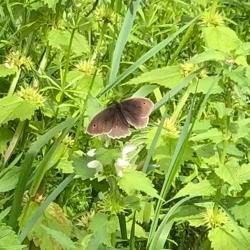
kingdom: Animalia
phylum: Arthropoda
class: Insecta
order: Lepidoptera
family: Nymphalidae
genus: Maniola
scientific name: Maniola jurtina
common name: Græsrandøje
